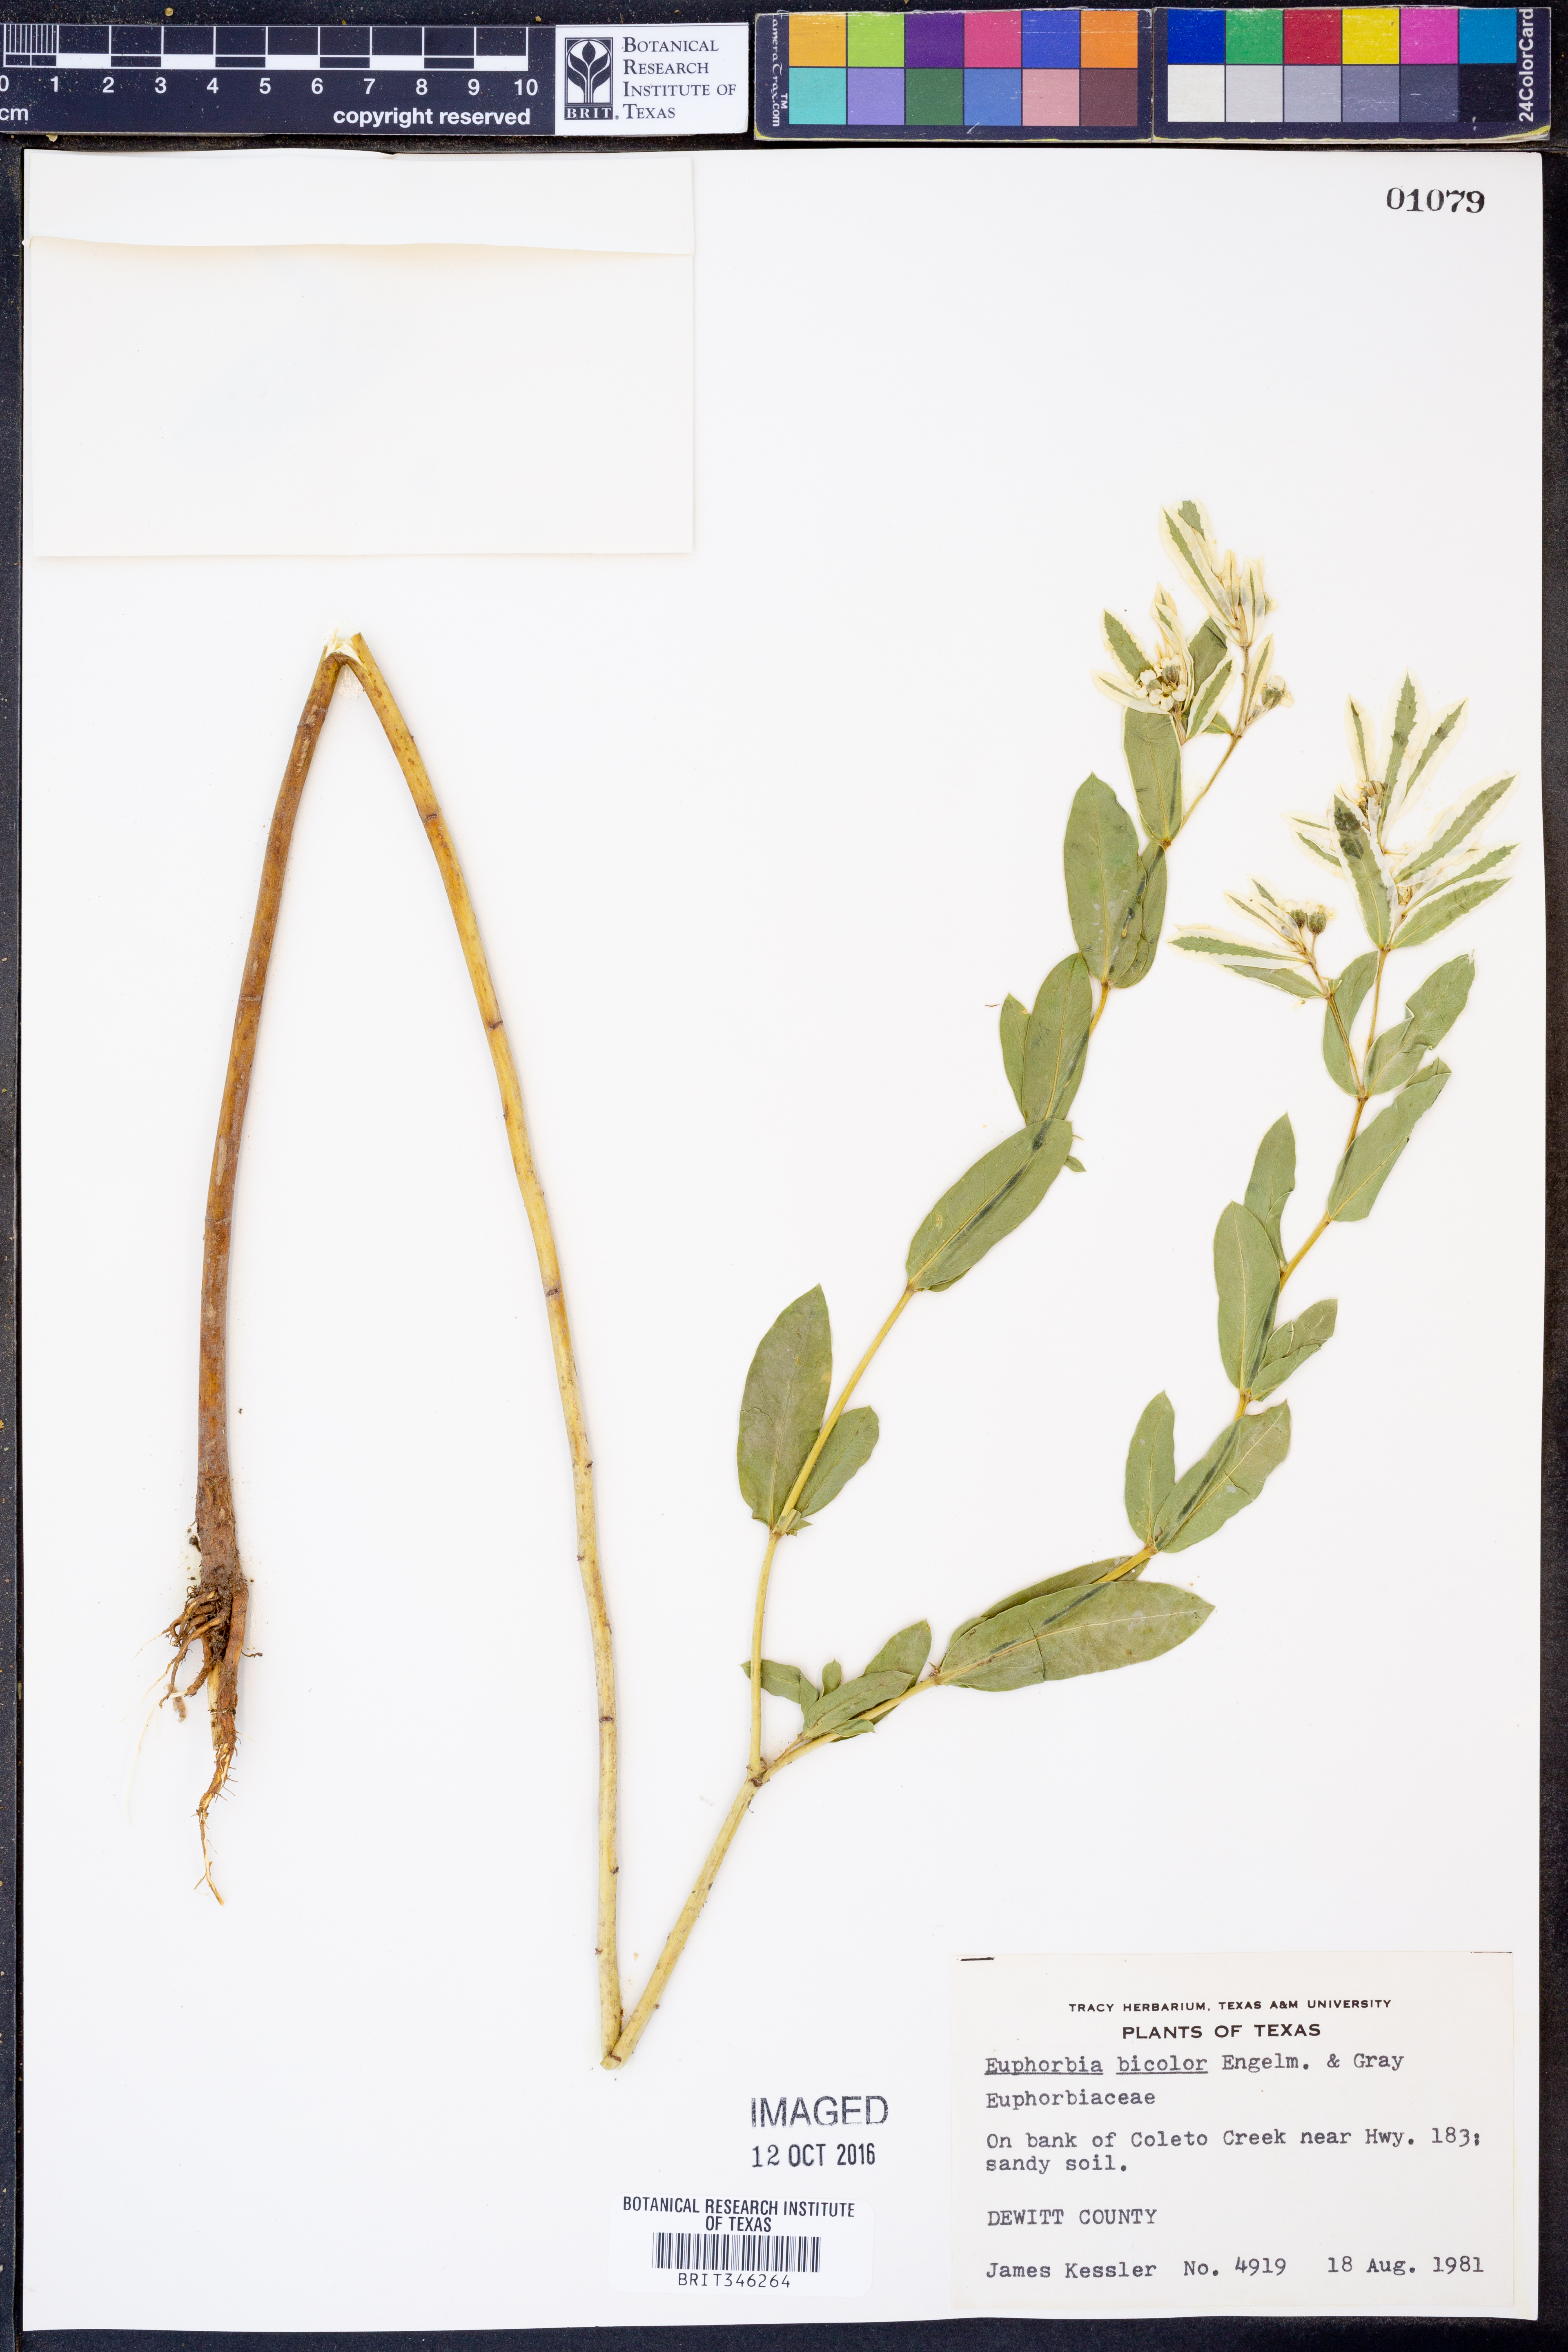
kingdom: Plantae
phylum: Tracheophyta
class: Magnoliopsida
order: Malpighiales
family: Euphorbiaceae
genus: Euphorbia
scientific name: Euphorbia bicolor
